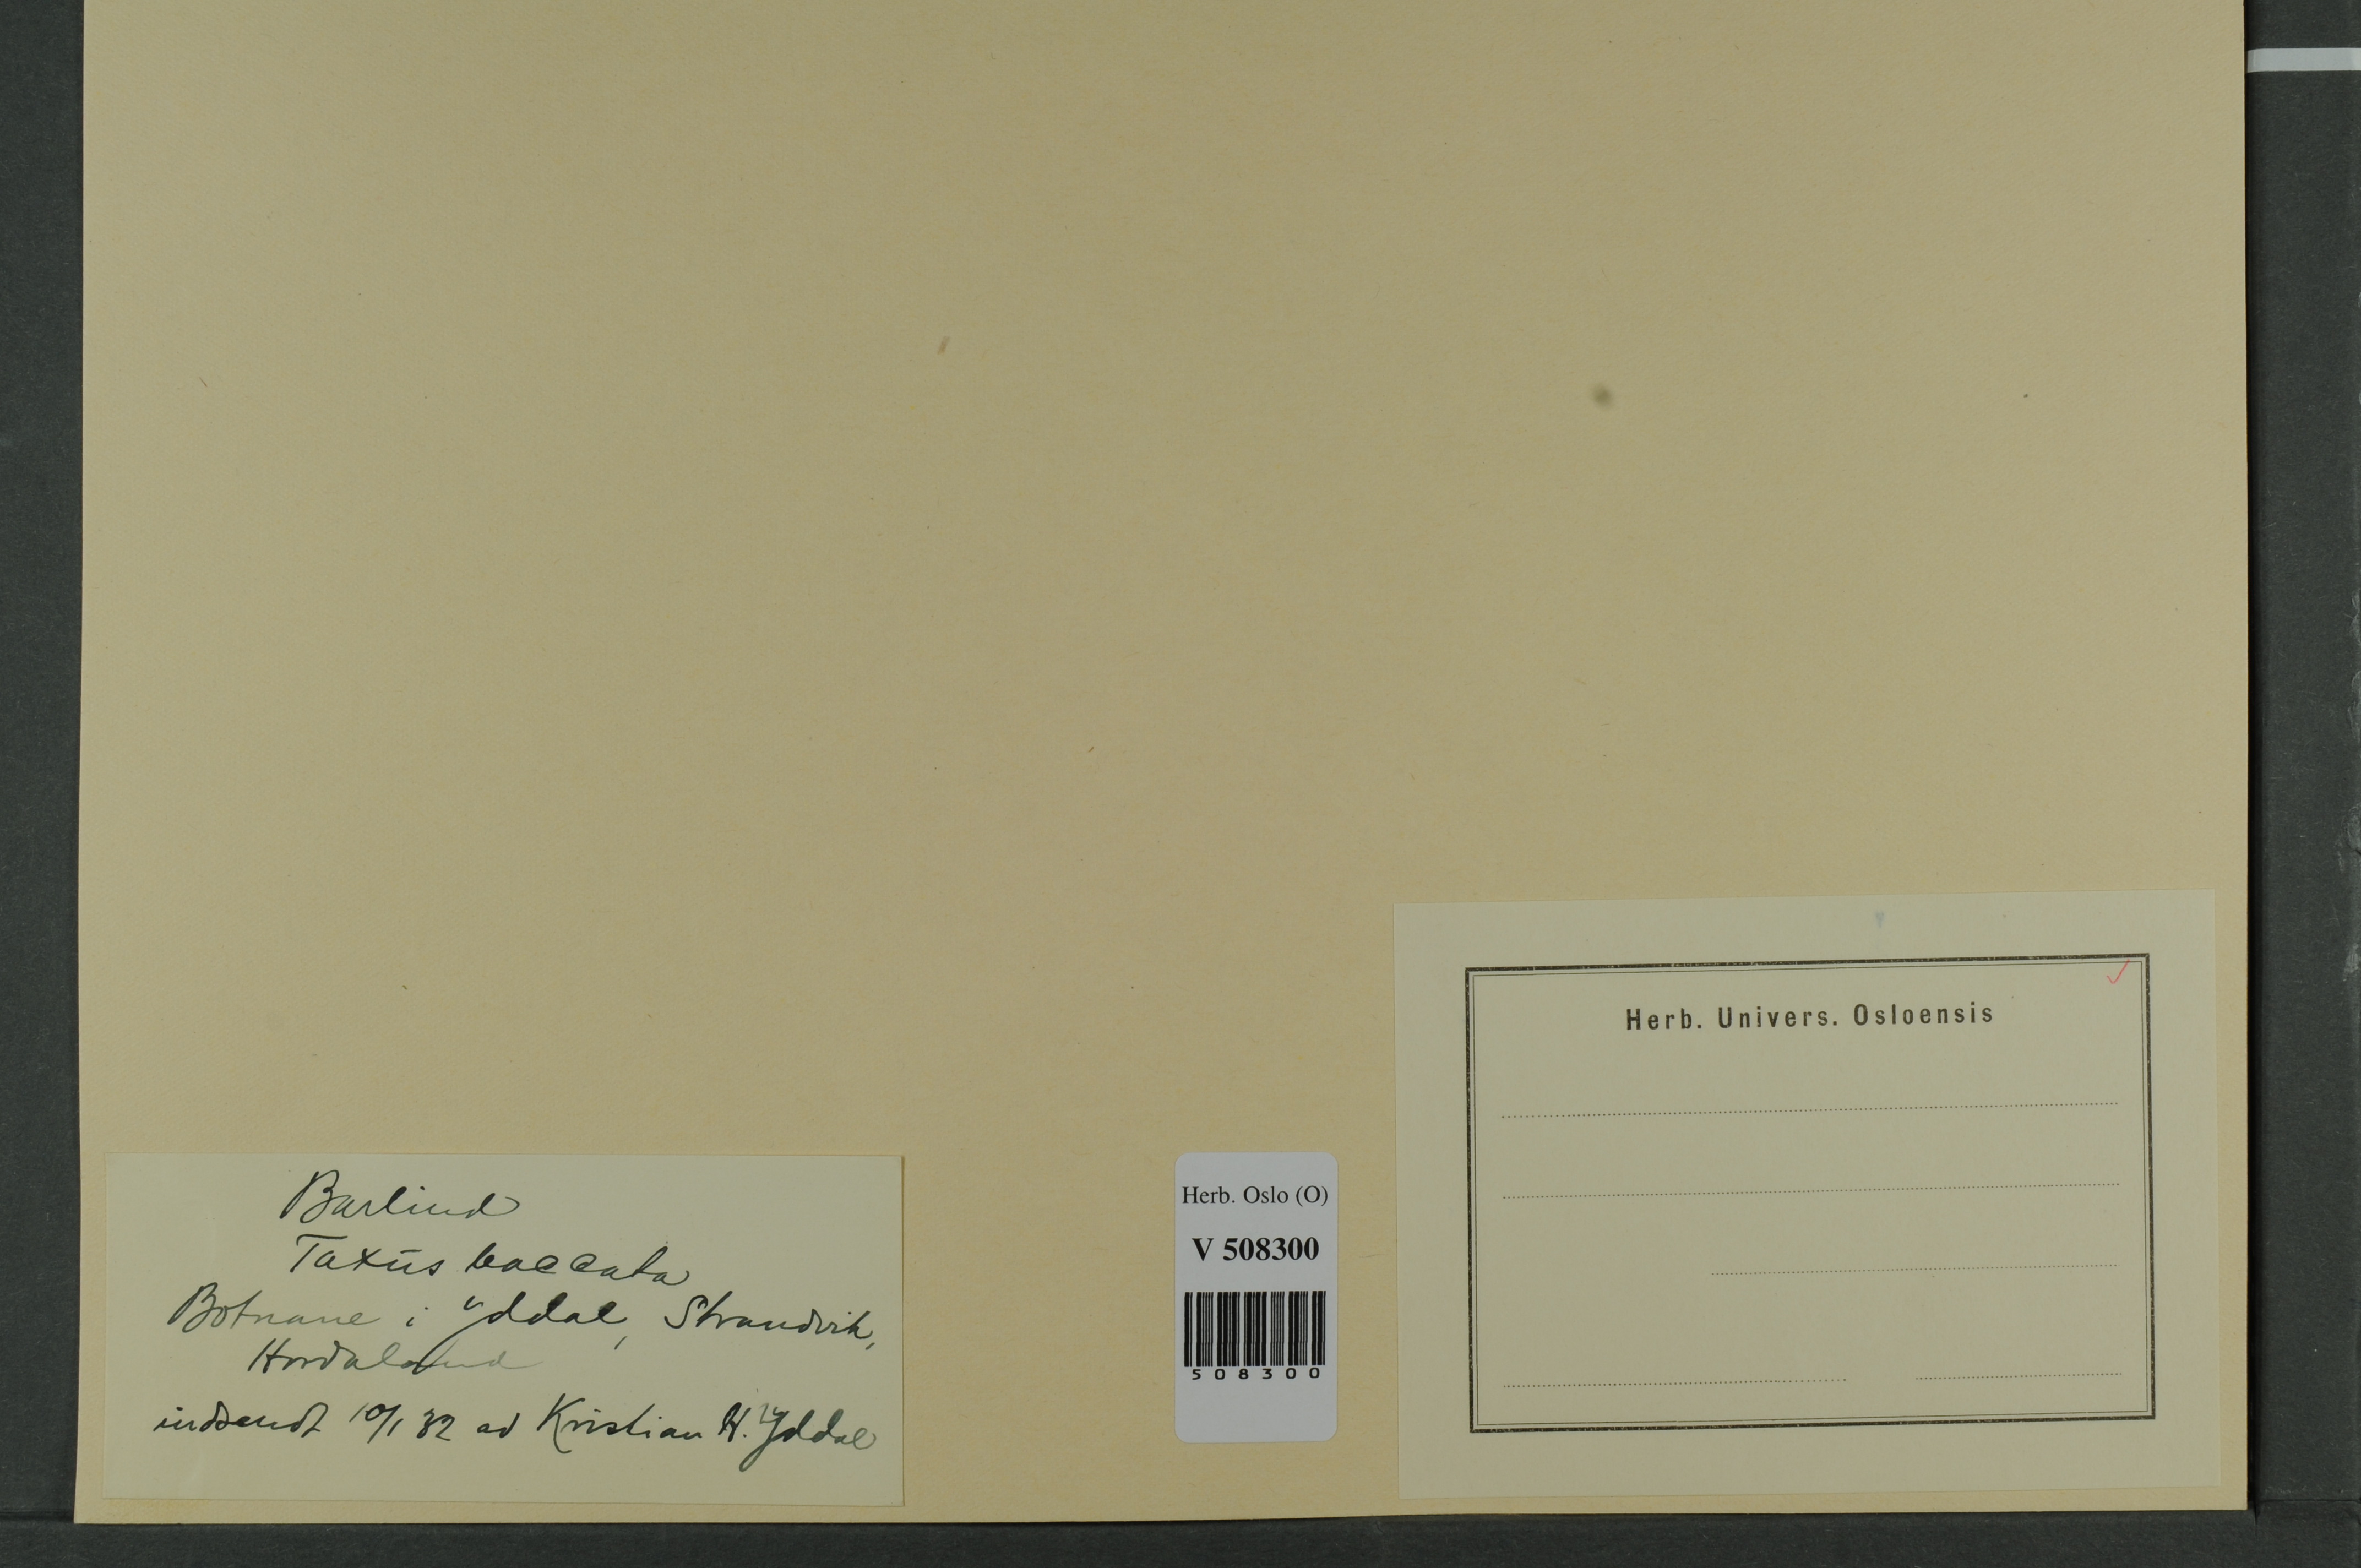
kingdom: Plantae
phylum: Tracheophyta
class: Pinopsida
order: Pinales
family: Taxaceae
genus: Taxus
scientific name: Taxus baccata
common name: Yew
